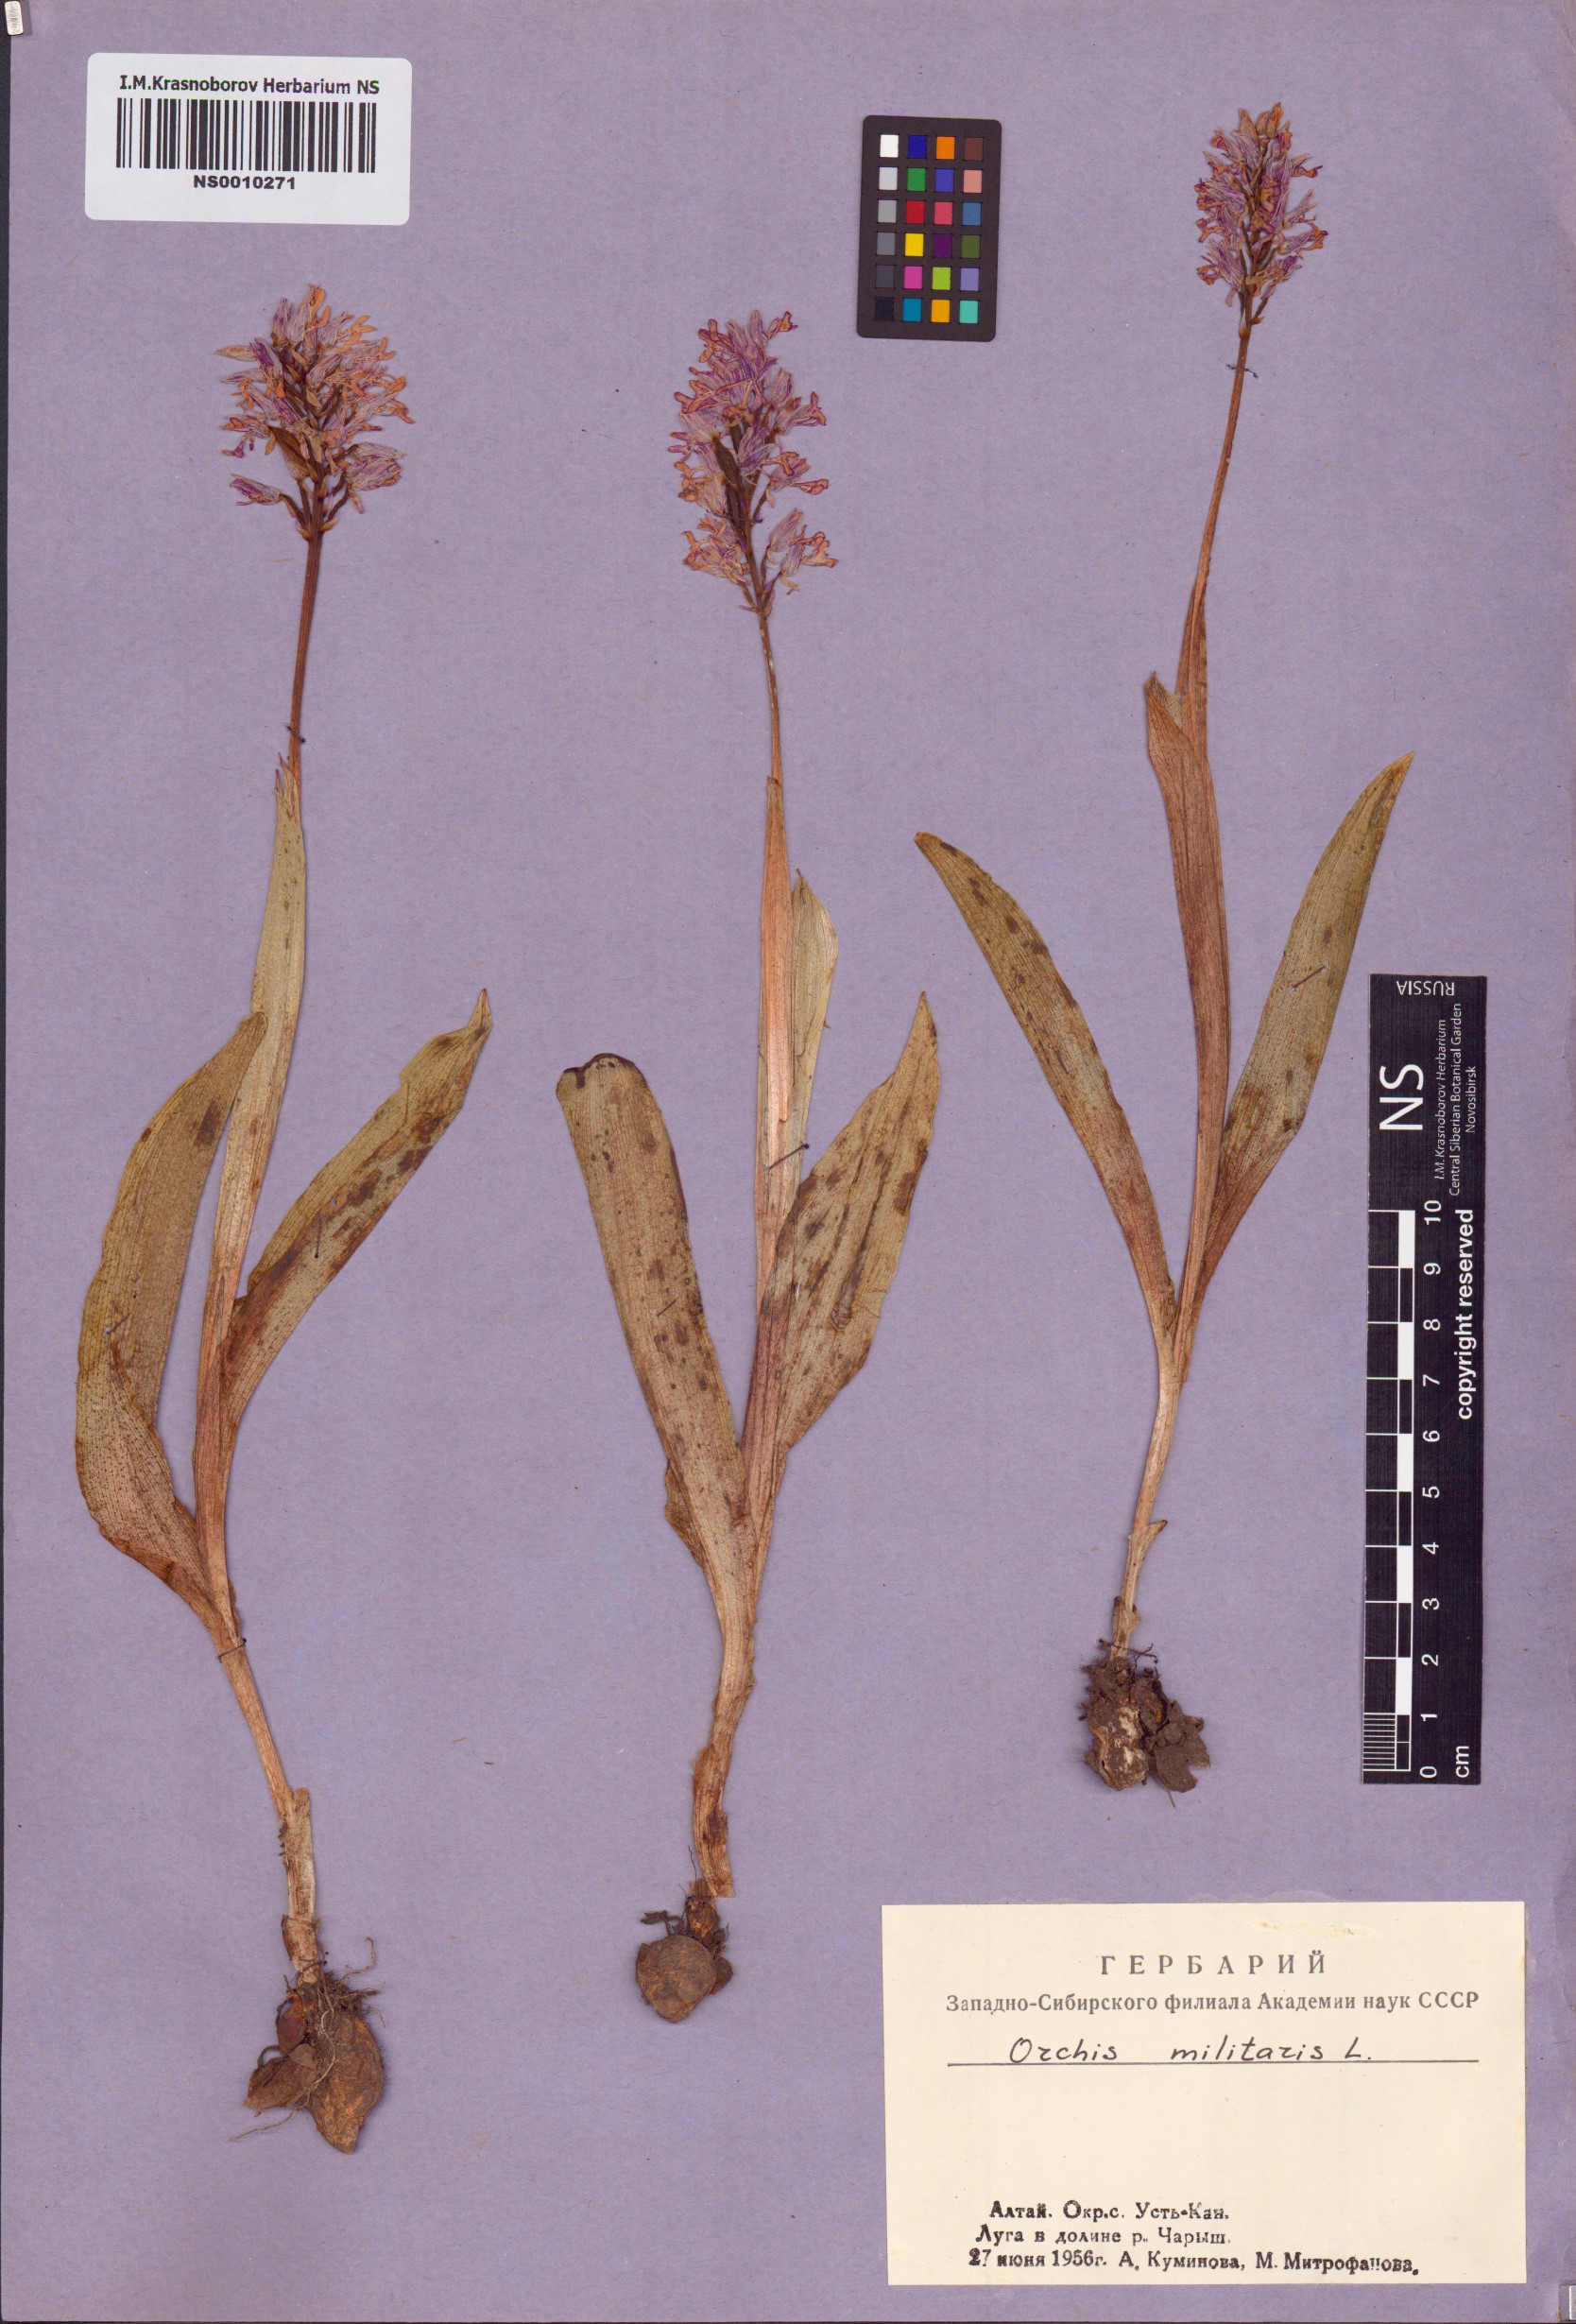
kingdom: Plantae
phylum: Tracheophyta
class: Liliopsida
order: Asparagales
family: Orchidaceae
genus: Orchis
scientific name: Orchis militaris
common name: Military orchid
